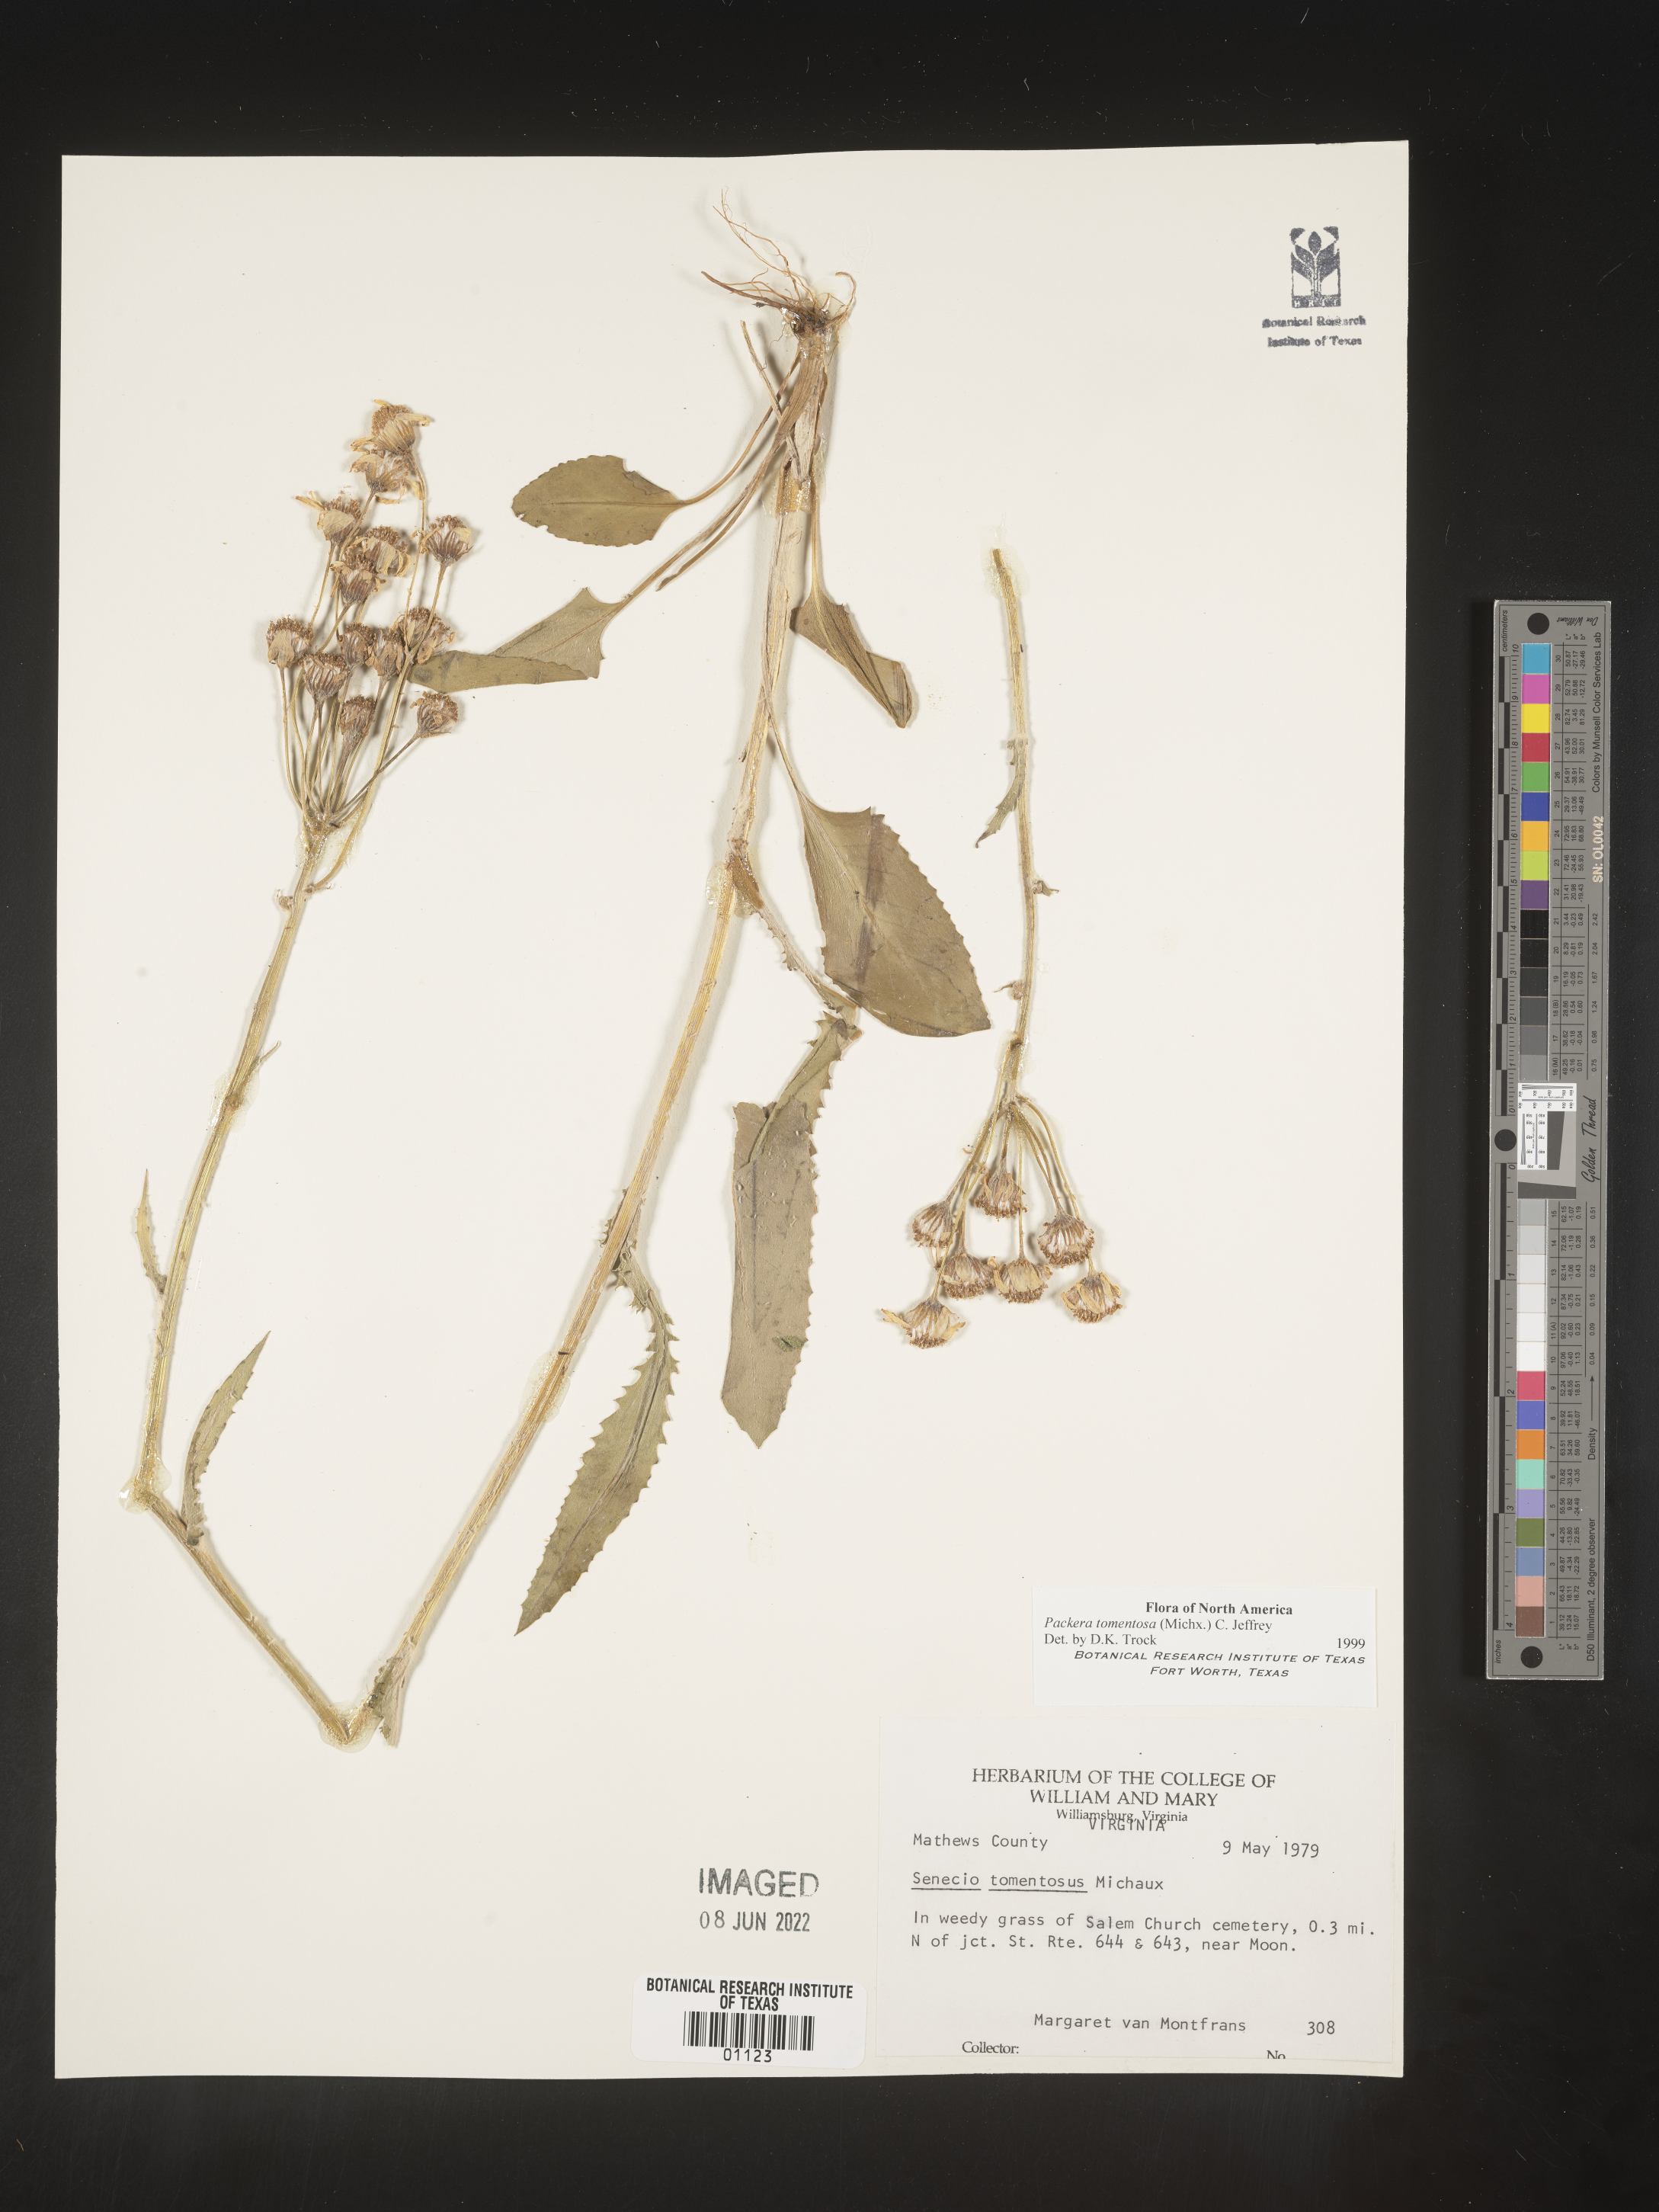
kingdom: Plantae
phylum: Tracheophyta
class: Magnoliopsida
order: Asterales
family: Asteraceae
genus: Packera
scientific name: Packera dubia
